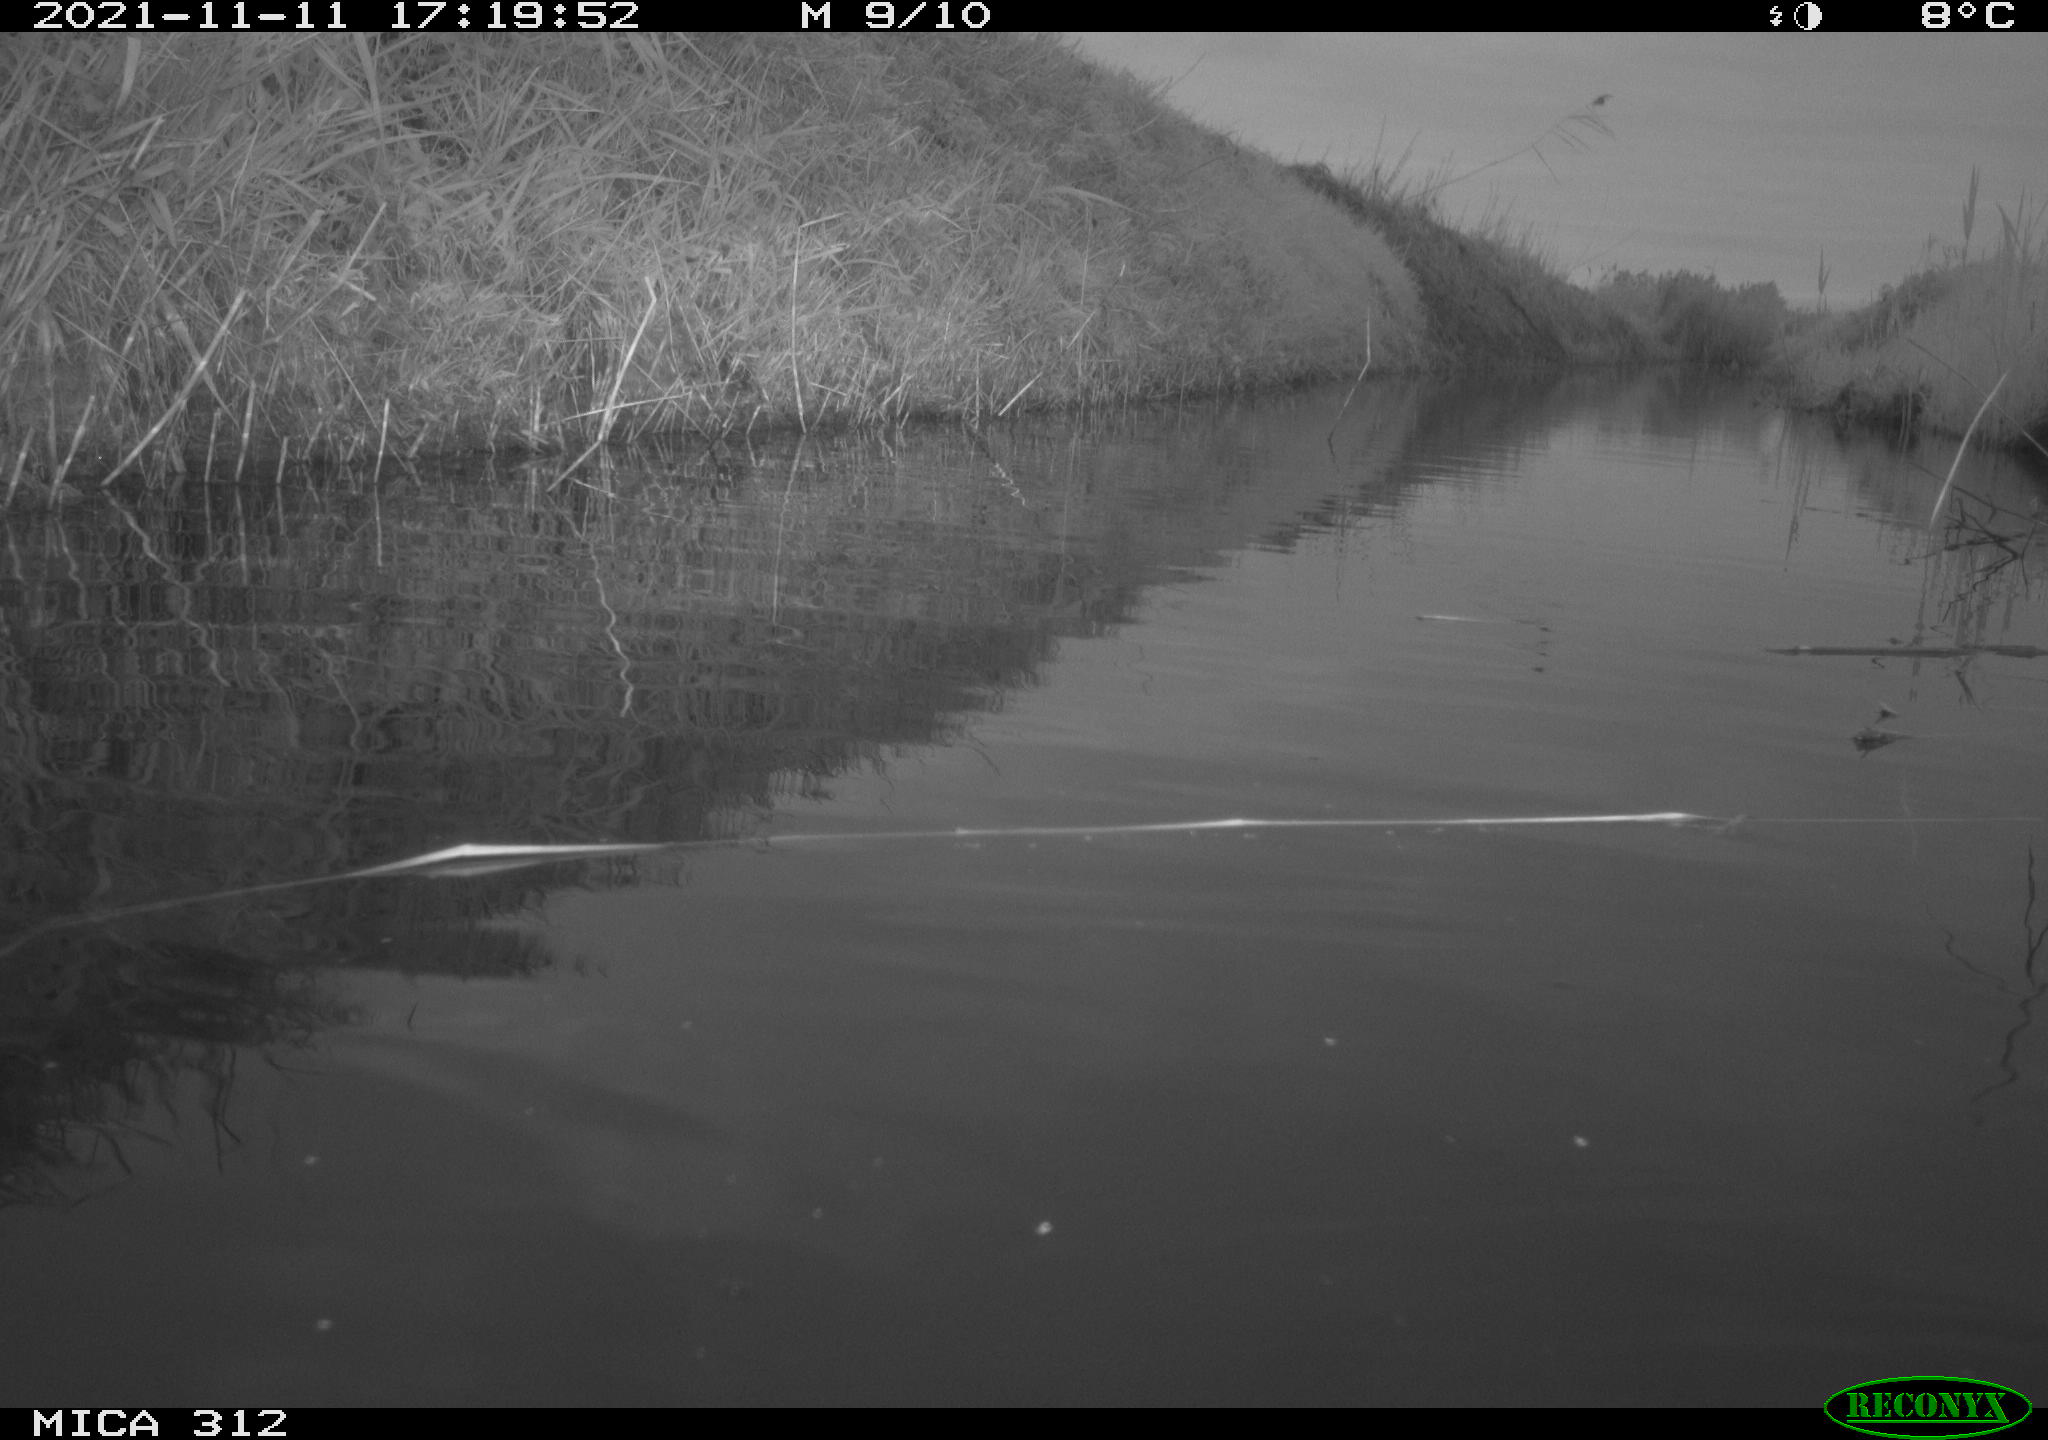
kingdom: Animalia
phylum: Chordata
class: Aves
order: Gruiformes
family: Rallidae
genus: Gallinula
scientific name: Gallinula chloropus
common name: Common moorhen
